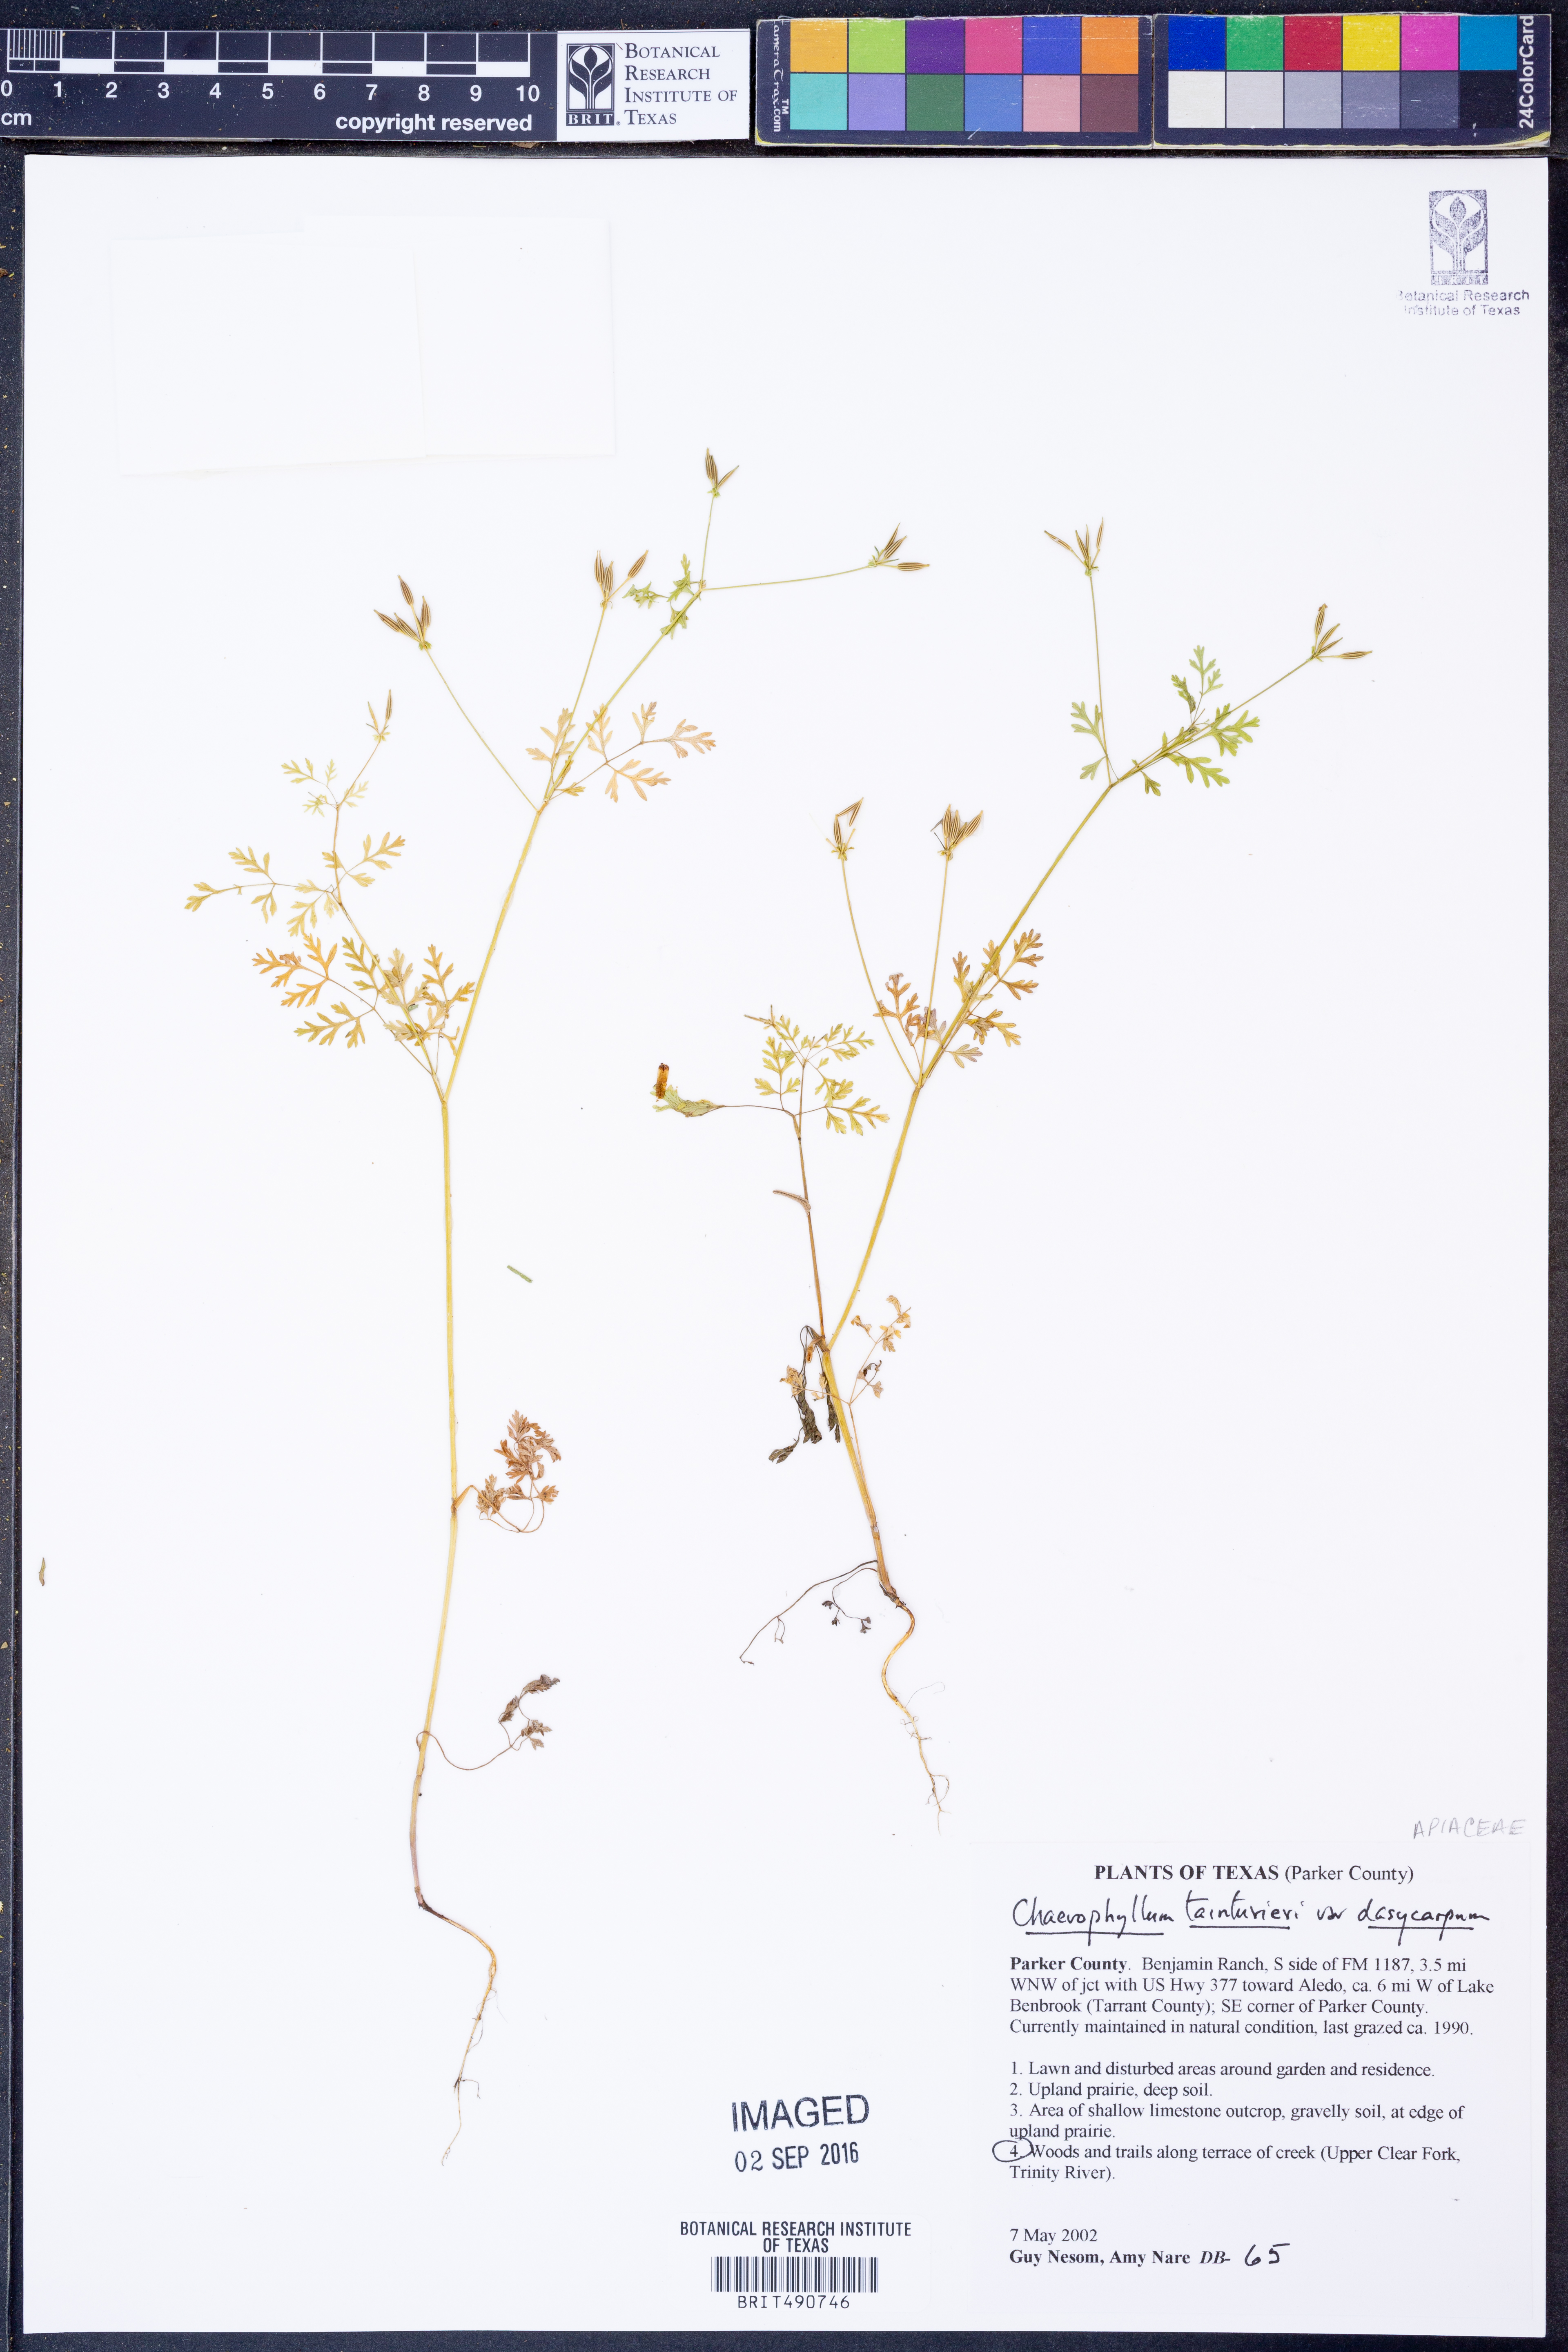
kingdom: Plantae
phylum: Tracheophyta
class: Magnoliopsida
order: Apiales
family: Apiaceae
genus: Chaerophyllum
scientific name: Chaerophyllum dasycarpum
